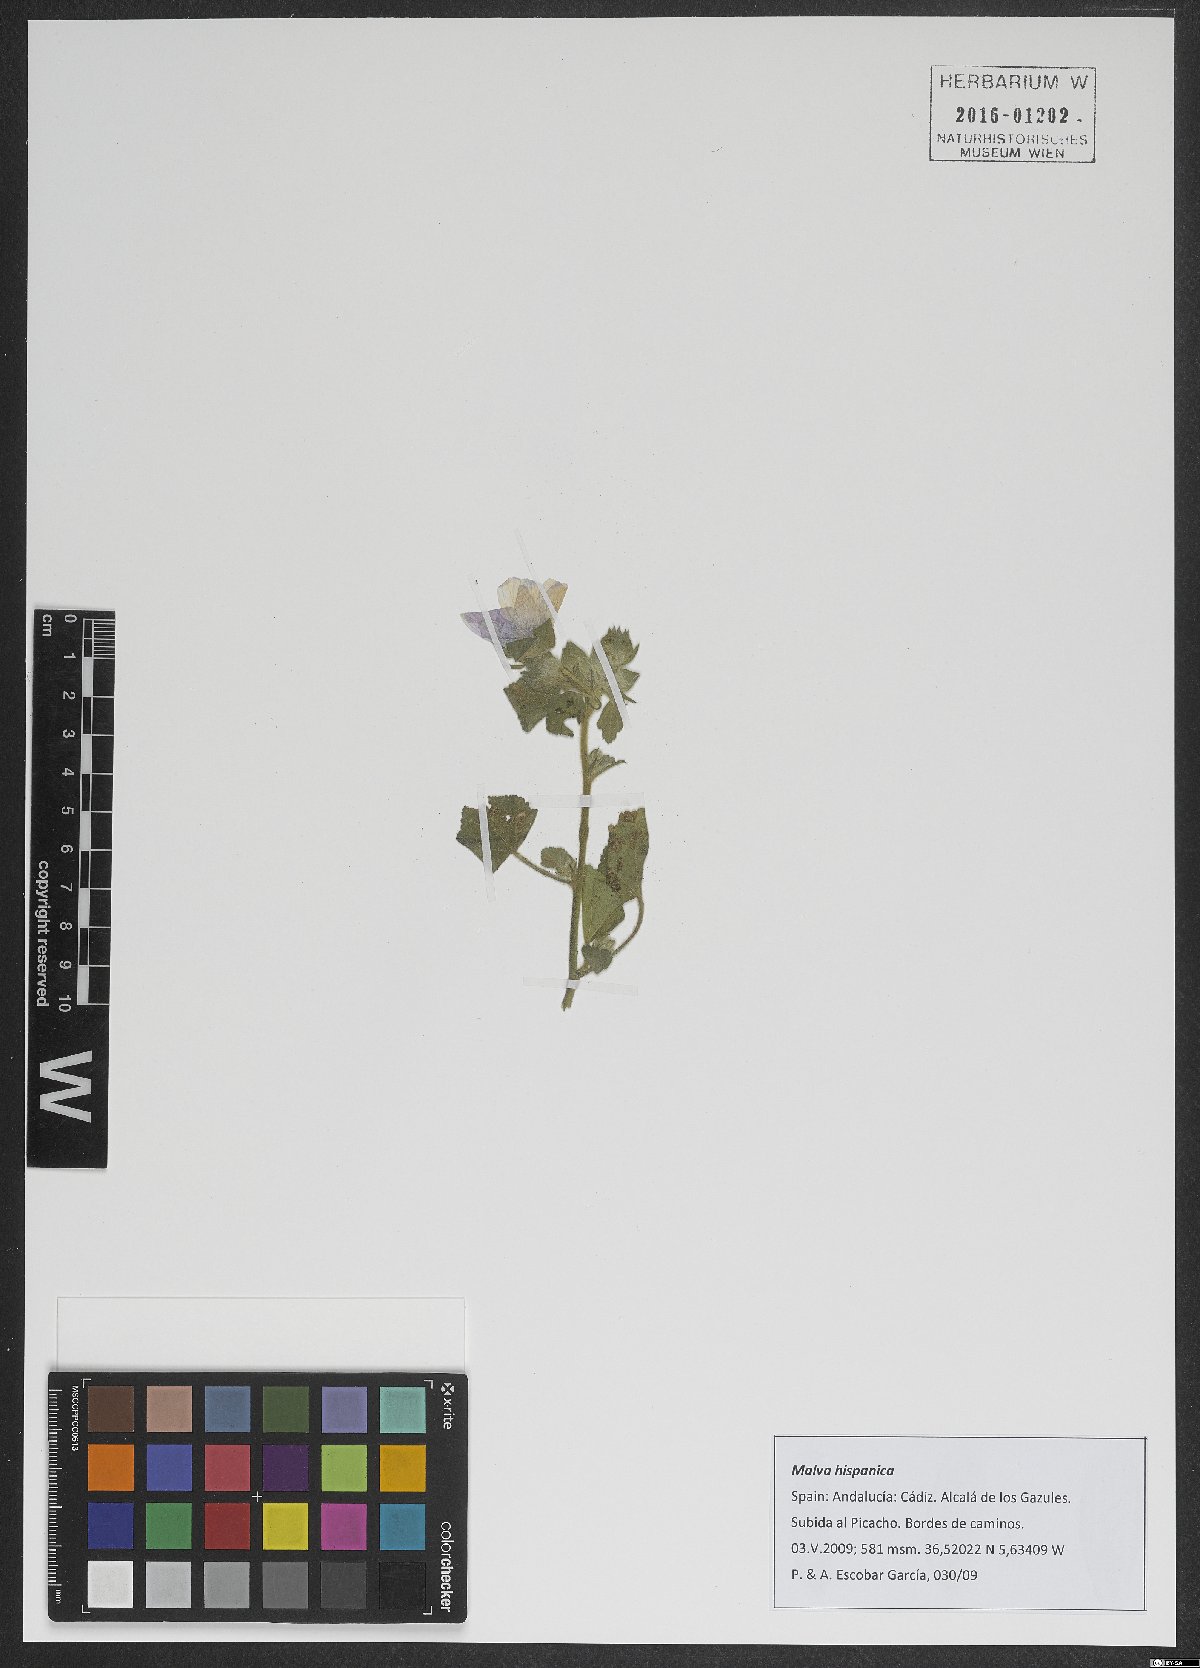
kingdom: Plantae
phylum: Tracheophyta
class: Magnoliopsida
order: Malvales
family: Malvaceae
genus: Malva
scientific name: Malva hispanica
